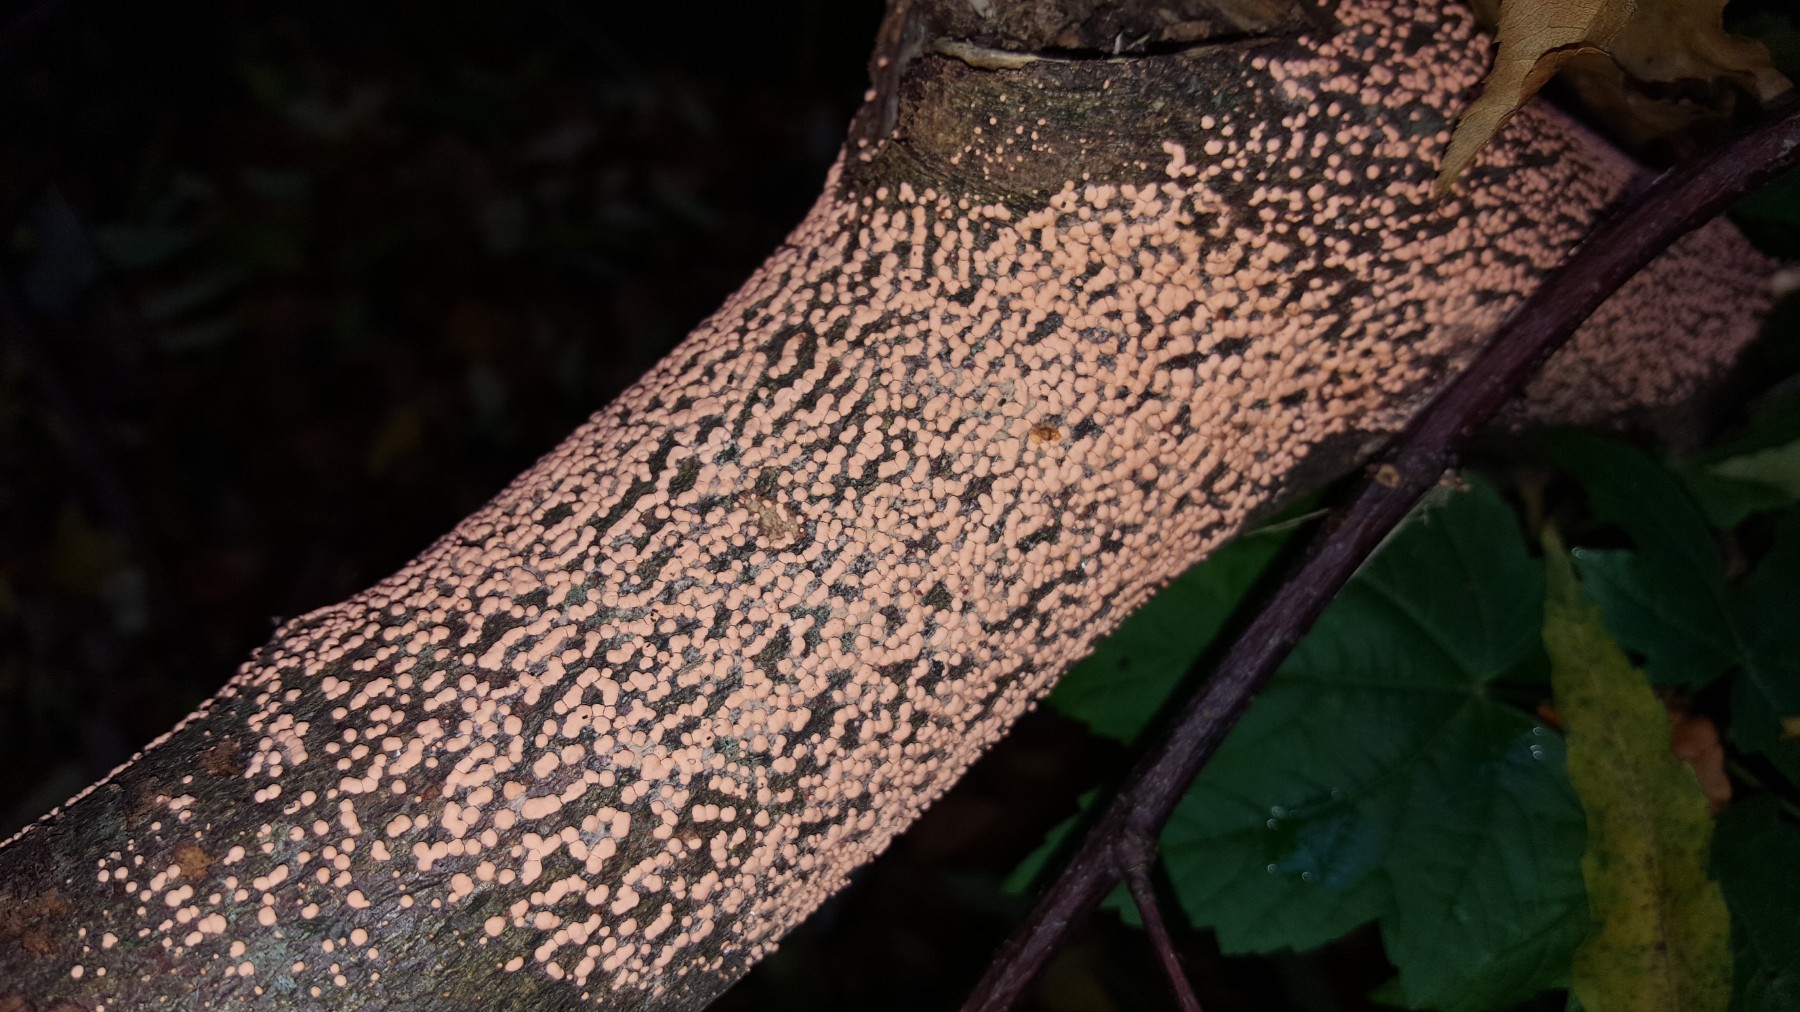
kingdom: Fungi
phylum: Ascomycota
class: Sordariomycetes
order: Hypocreales
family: Nectriaceae
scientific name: Nectriaceae
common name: cinnobersvampfamilien
